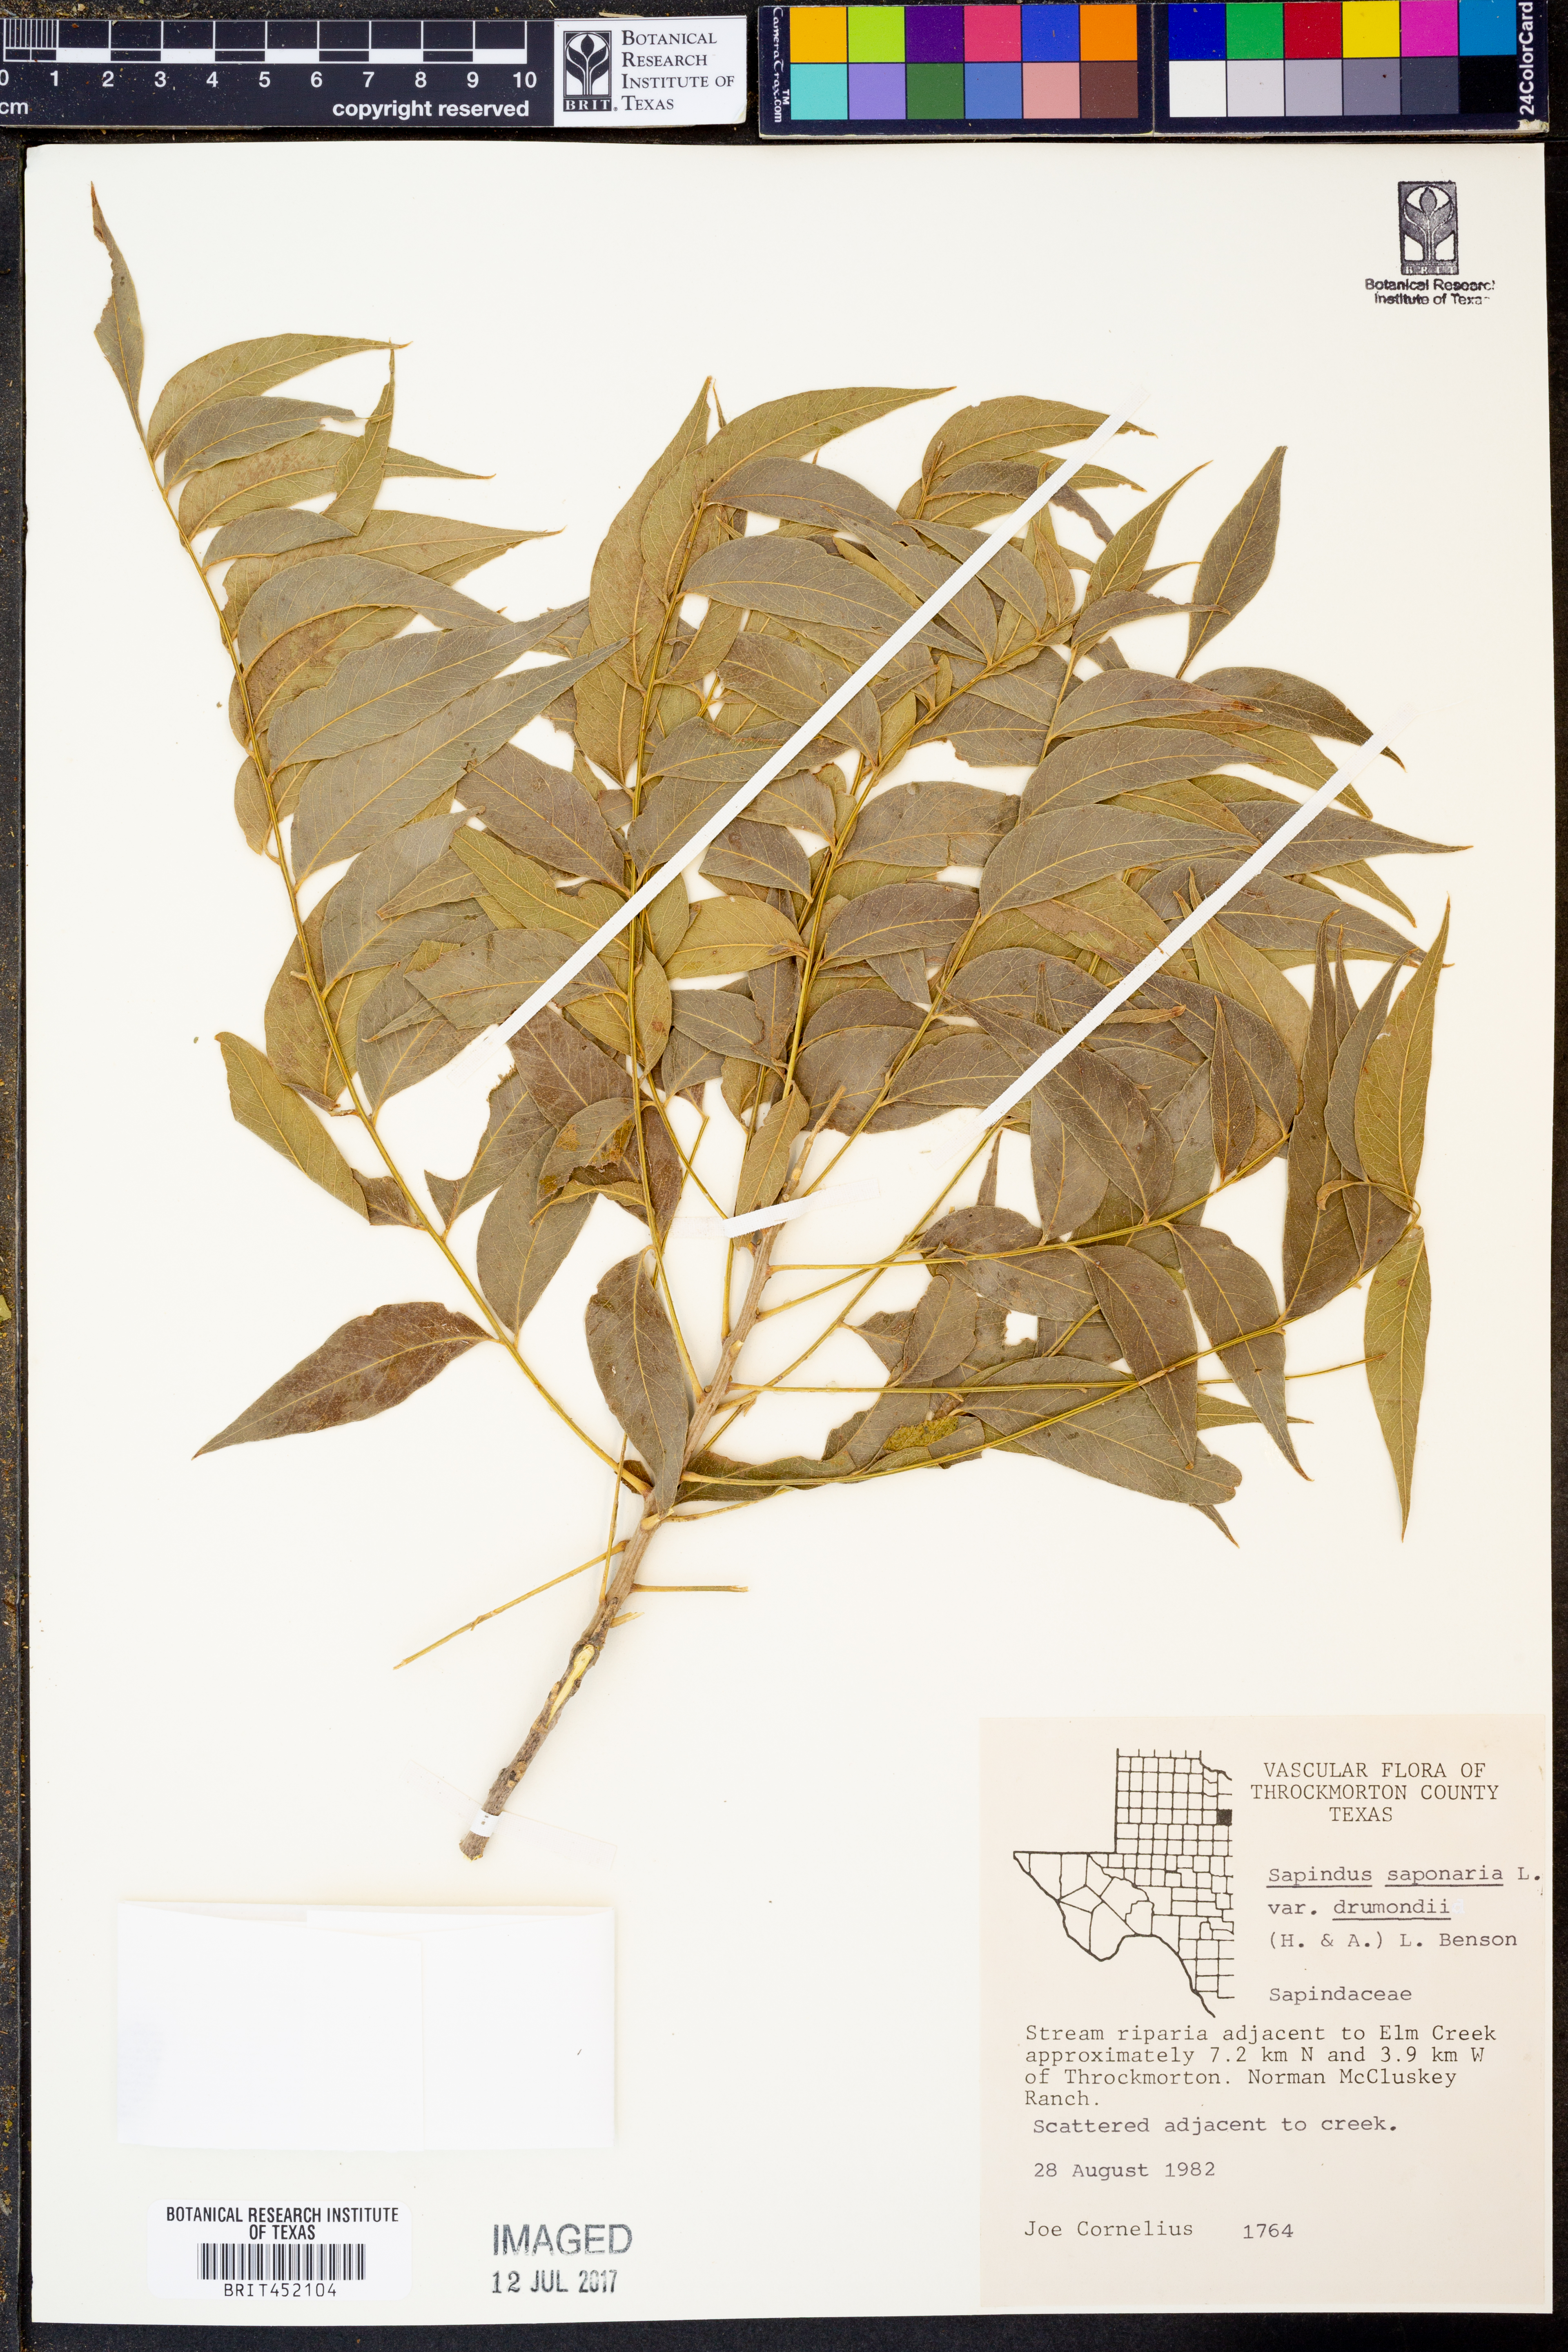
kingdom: Plantae
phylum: Tracheophyta
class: Magnoliopsida
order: Sapindales
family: Sapindaceae
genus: Sapindus
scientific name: Sapindus drummondii
